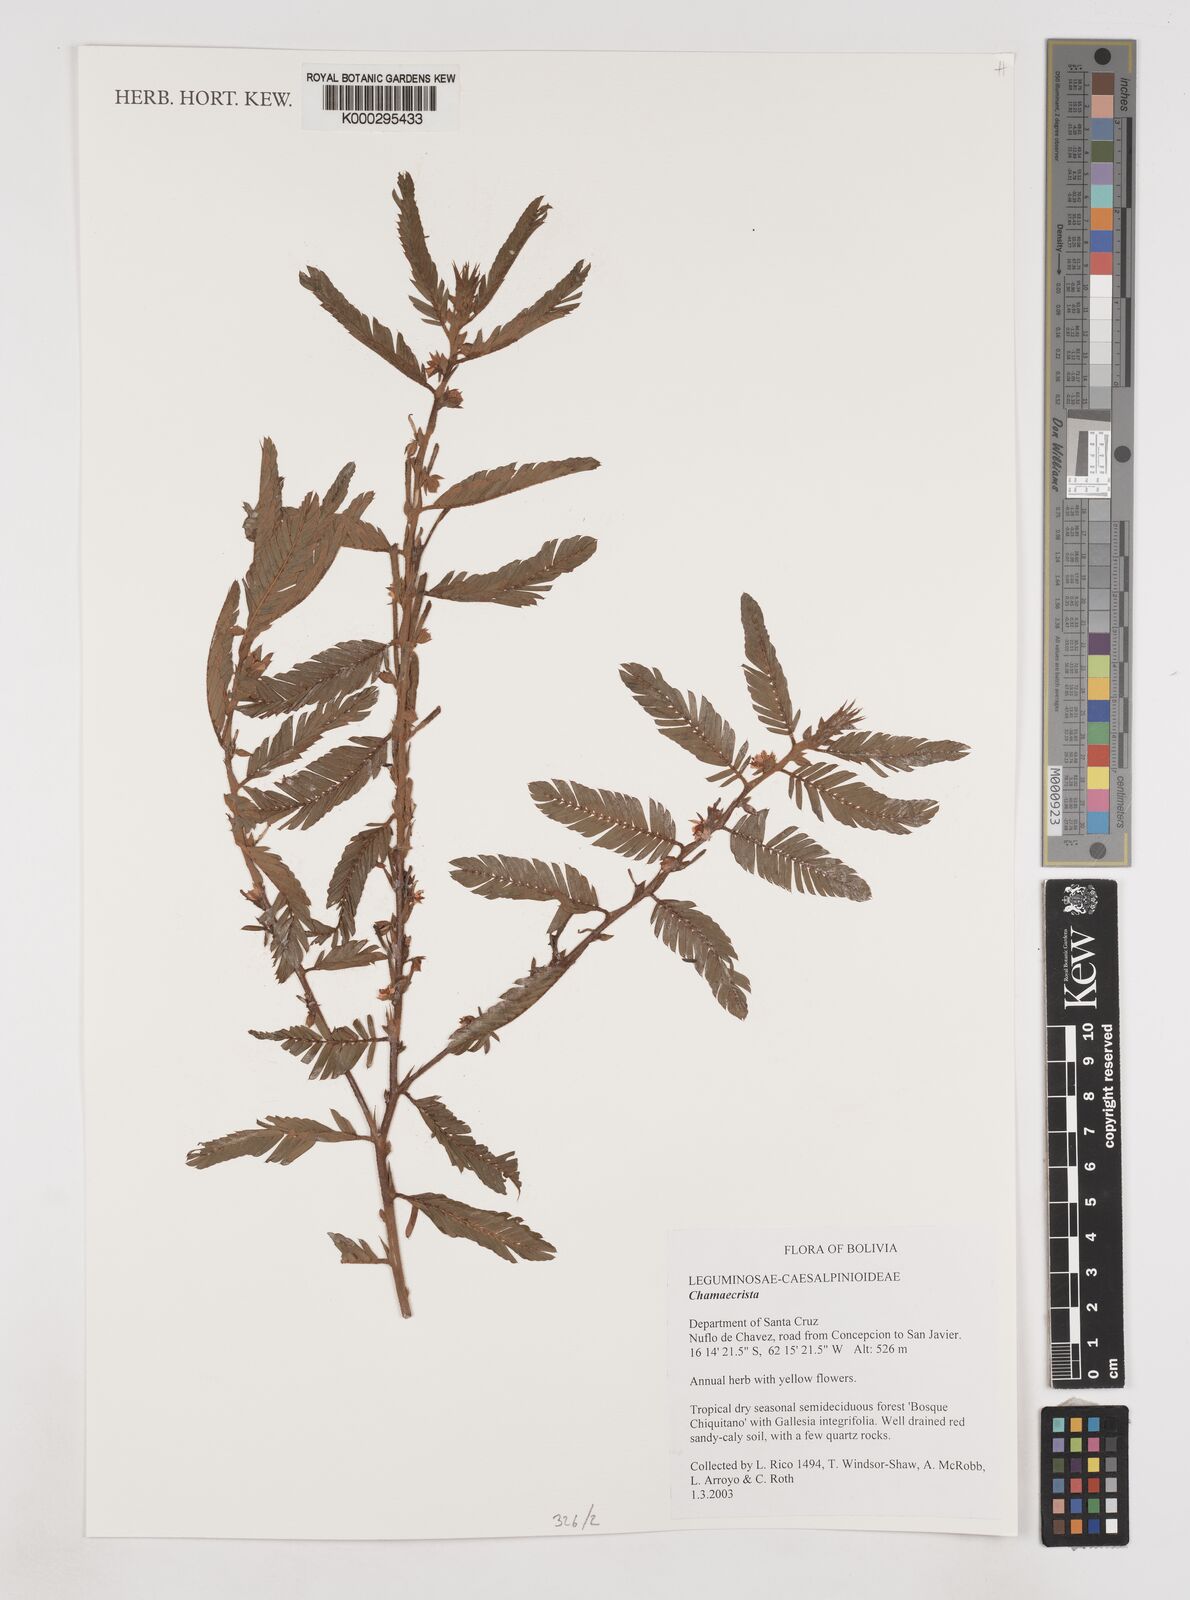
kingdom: Plantae
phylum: Tracheophyta
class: Magnoliopsida
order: Fabales
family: Fabaceae
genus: Chamaecrista
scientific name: Chamaecrista nictitans
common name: Sensitive cassia
